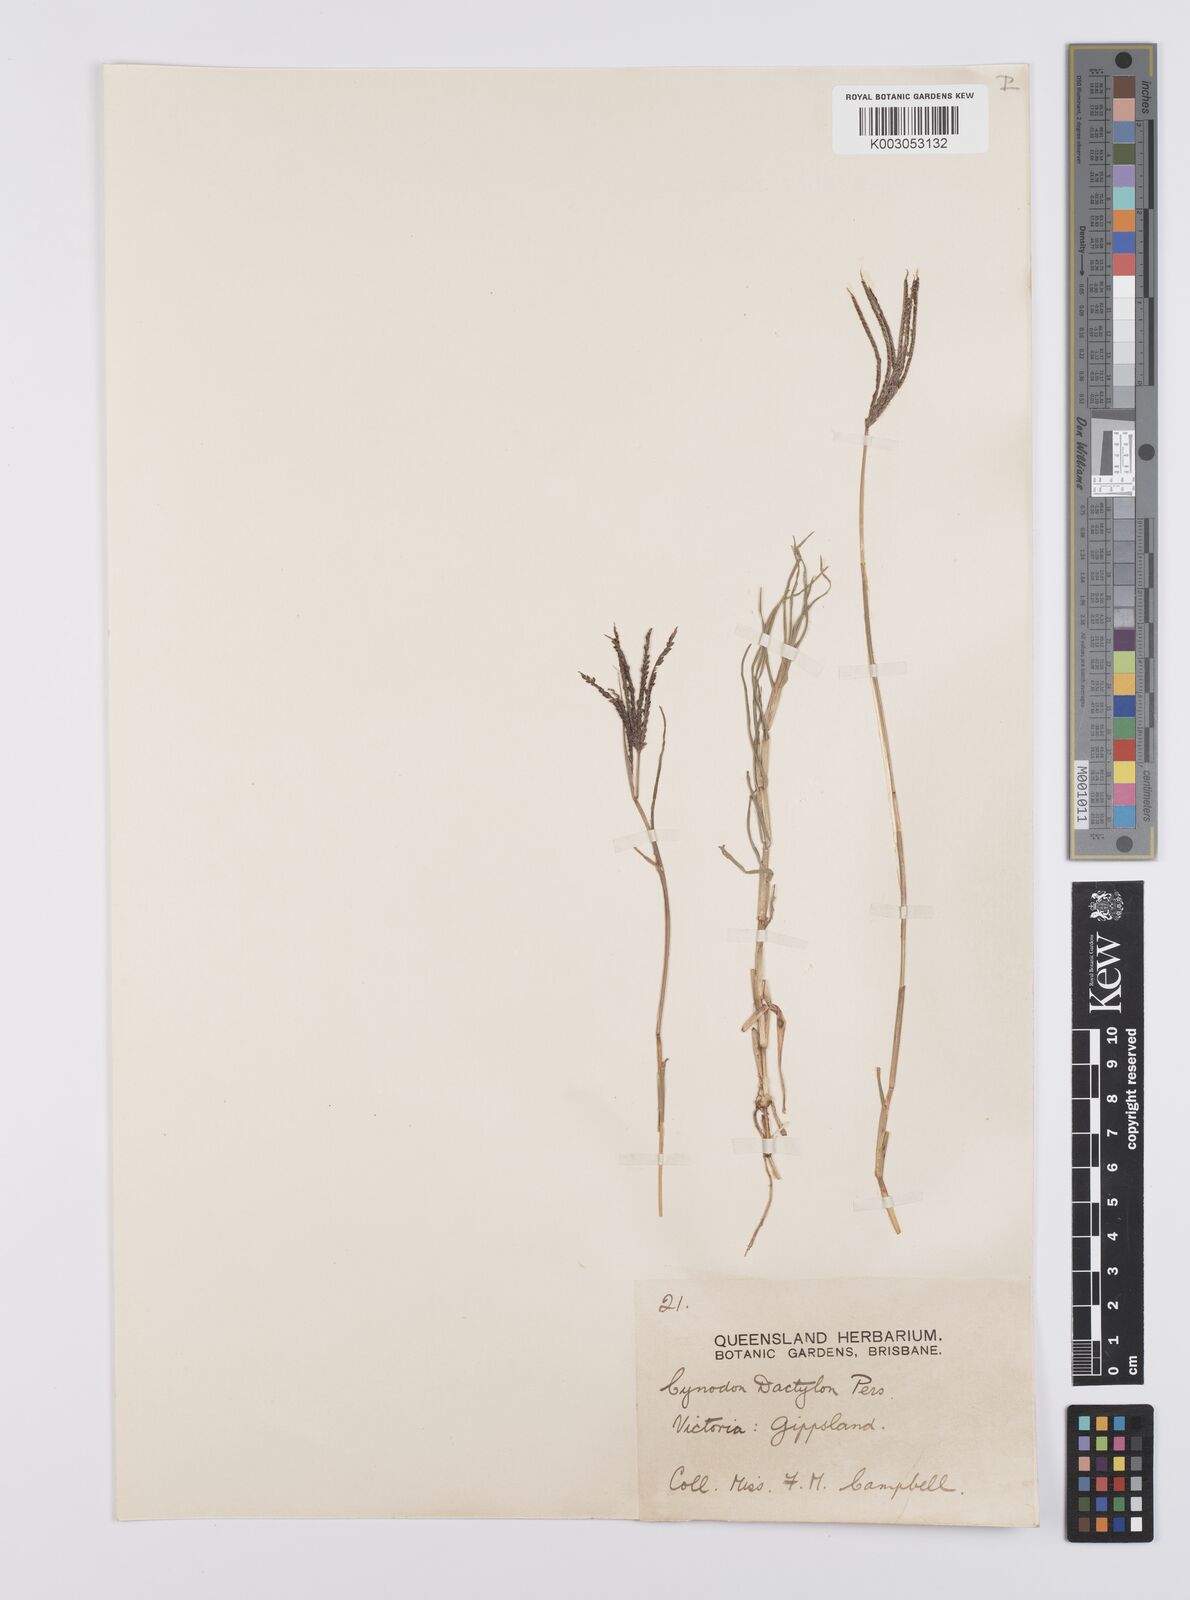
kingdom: Plantae
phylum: Tracheophyta
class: Liliopsida
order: Poales
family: Poaceae
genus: Cynodon
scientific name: Cynodon dactylon
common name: Bermuda grass
